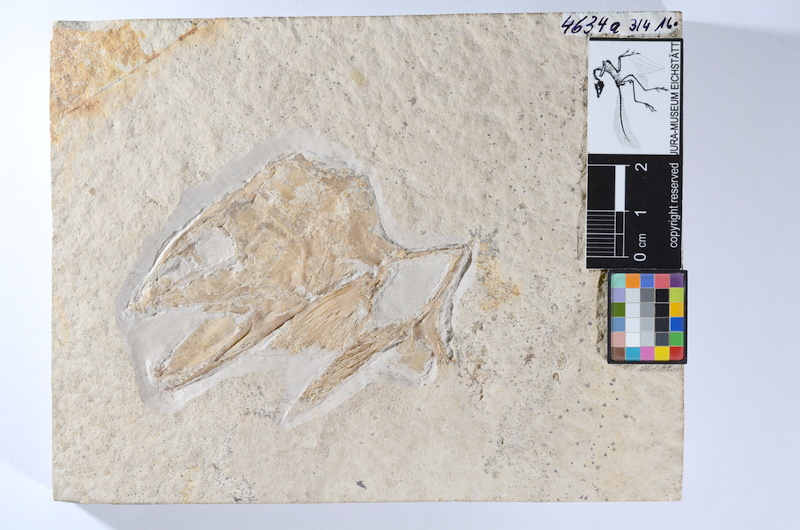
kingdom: Animalia
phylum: Chordata
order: Amiiformes
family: Caturidae
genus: Caturus
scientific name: Caturus
